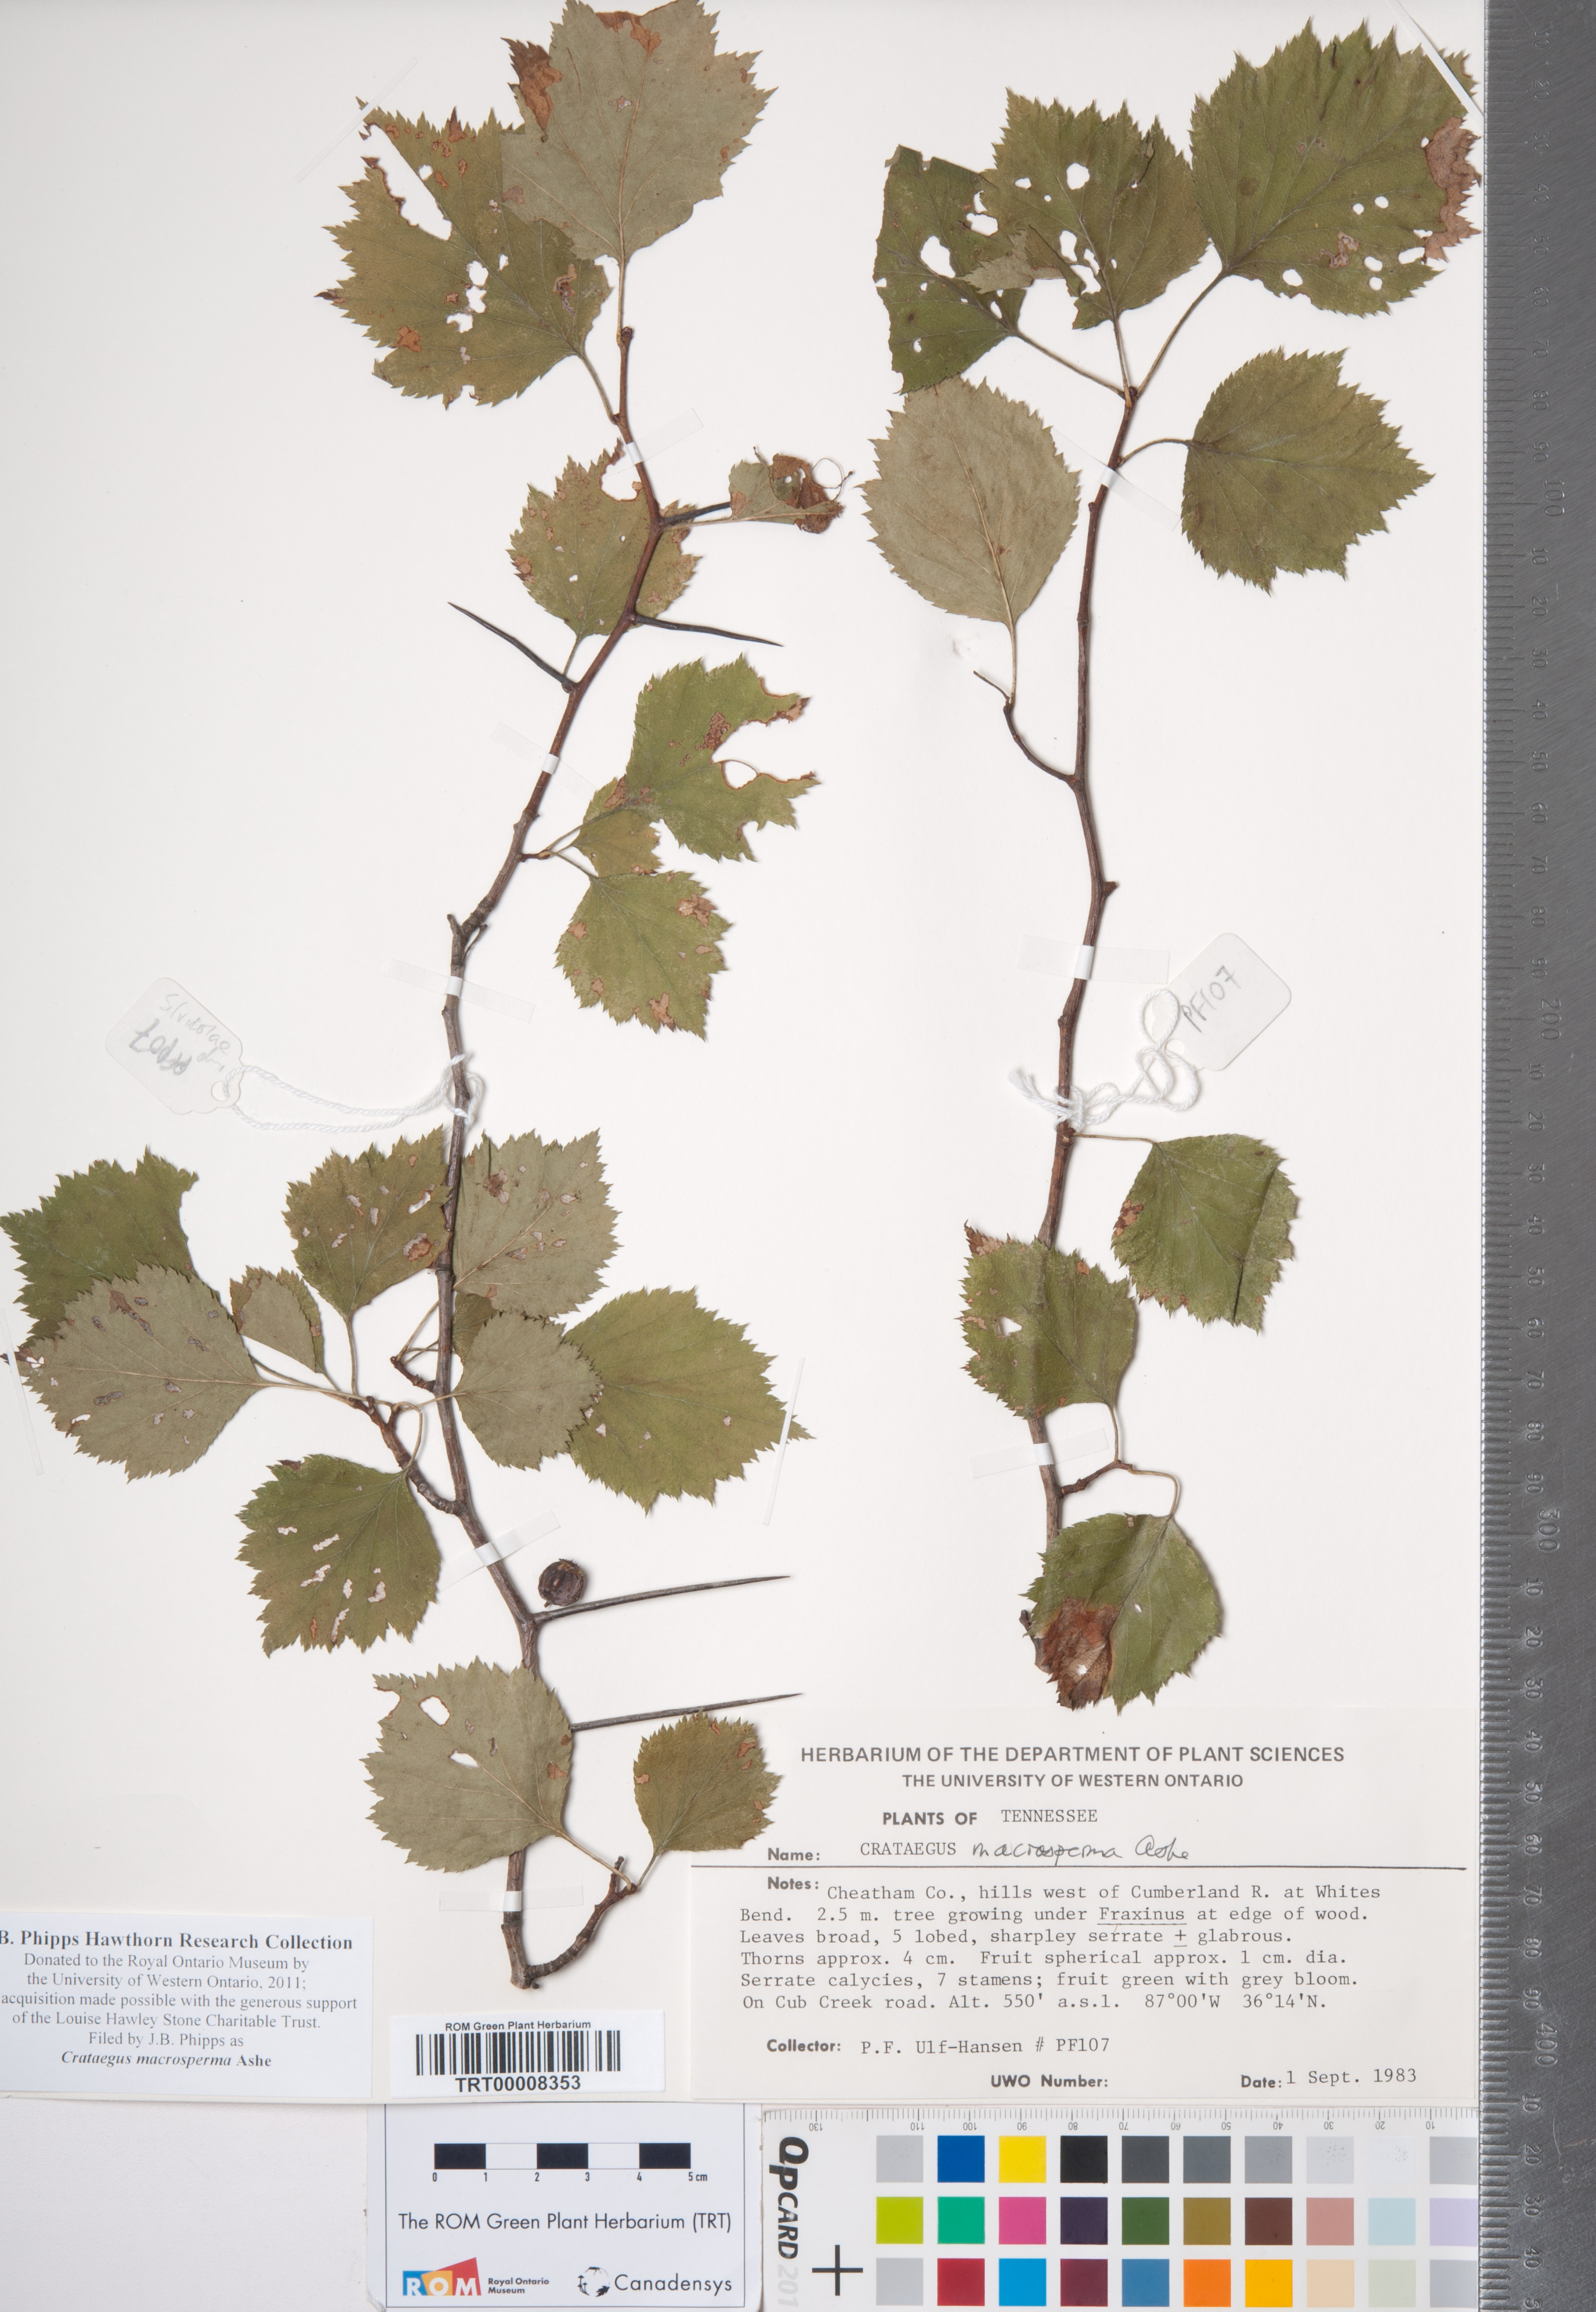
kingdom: Plantae
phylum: Tracheophyta
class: Magnoliopsida
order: Rosales
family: Rosaceae
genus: Crataegus
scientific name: Crataegus macrosperma
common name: Variable hawthorn
